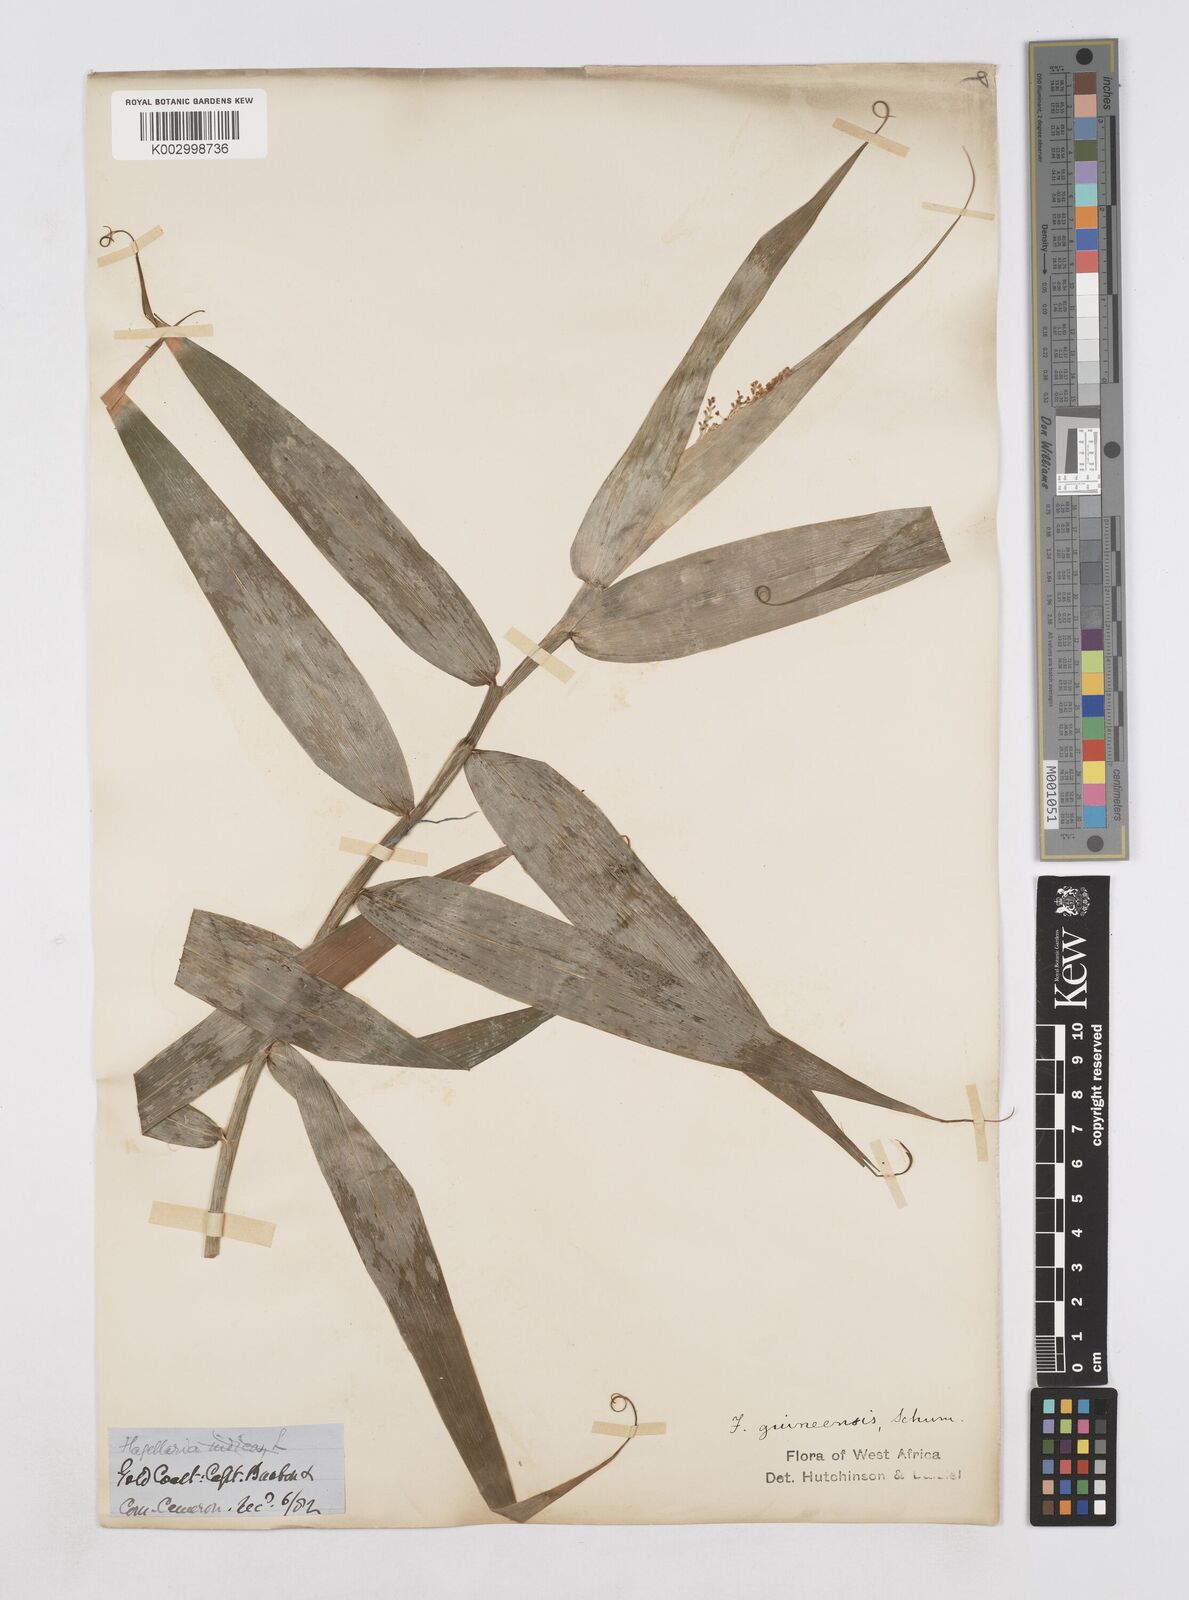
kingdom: Plantae
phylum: Tracheophyta
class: Liliopsida
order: Poales
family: Flagellariaceae
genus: Flagellaria
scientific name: Flagellaria guineensis
